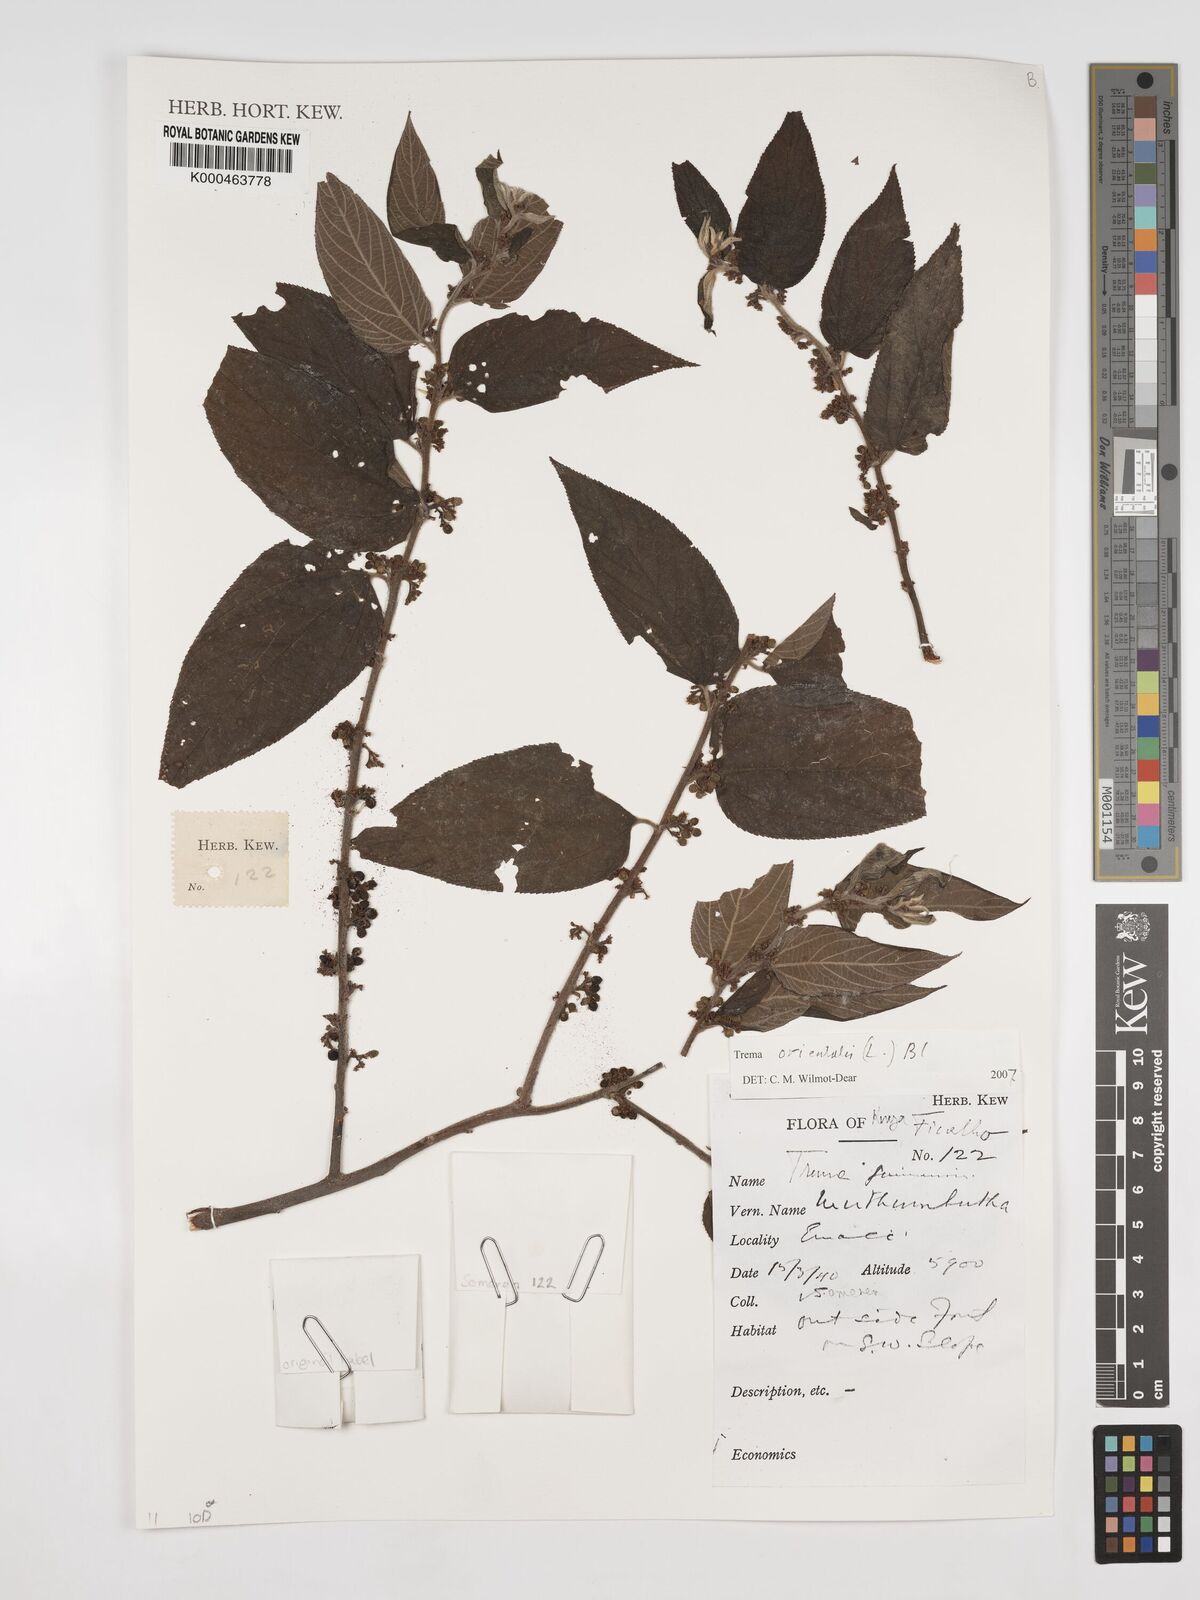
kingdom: Plantae
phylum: Tracheophyta
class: Magnoliopsida
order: Rosales
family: Cannabaceae
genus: Trema
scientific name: Trema
